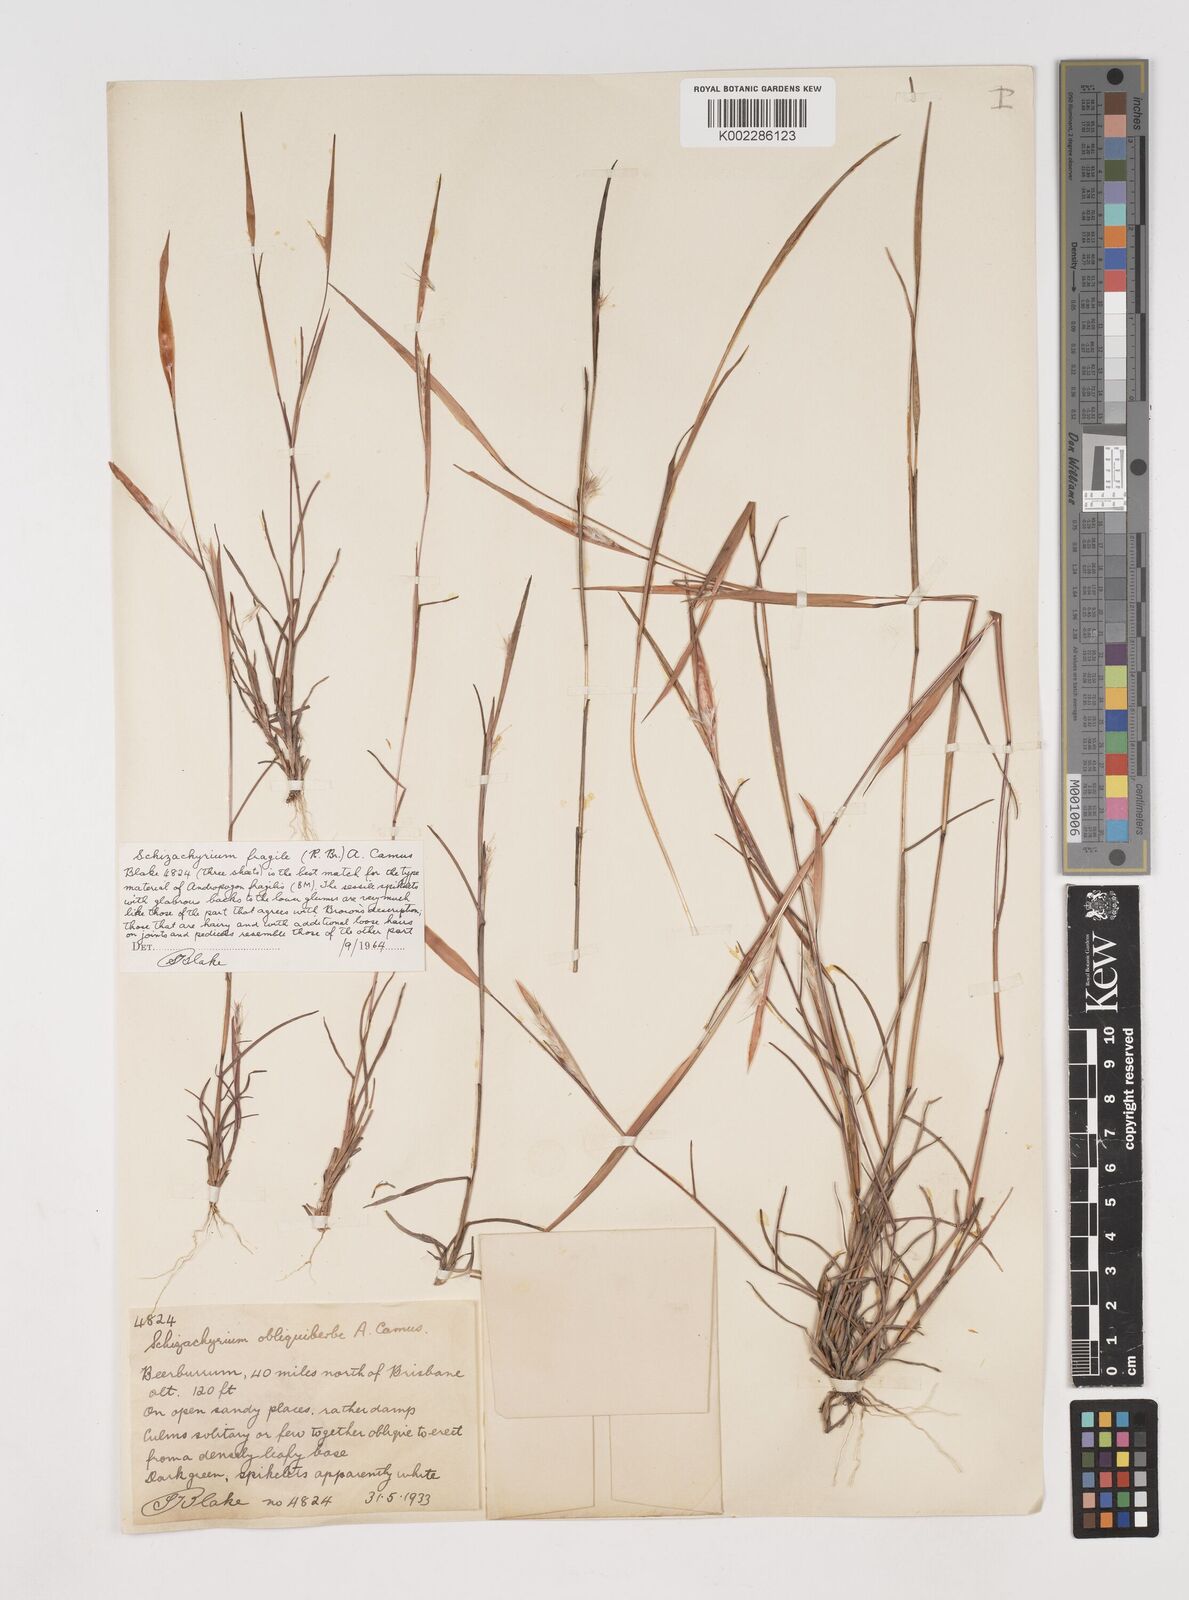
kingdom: Plantae
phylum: Tracheophyta
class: Liliopsida
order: Poales
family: Poaceae
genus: Schizachyrium
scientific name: Schizachyrium fragile
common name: Red spathe grass
